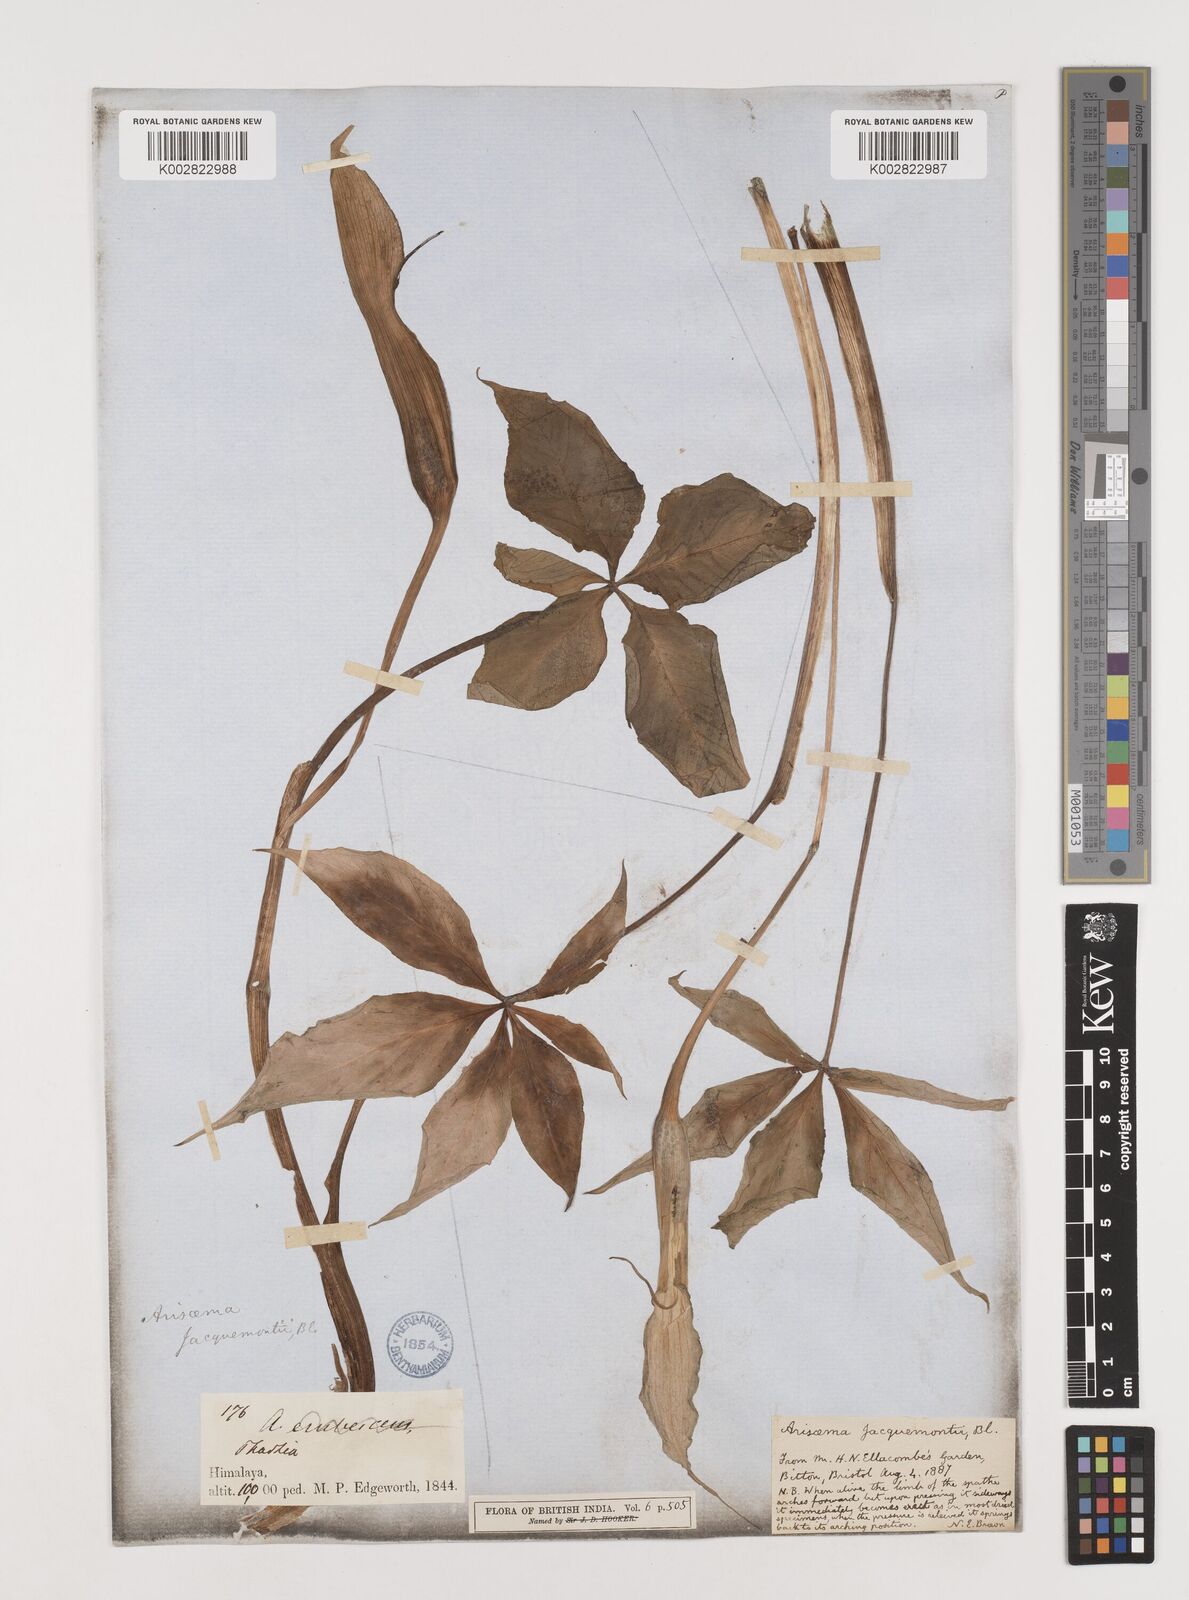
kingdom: Plantae
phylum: Tracheophyta
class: Liliopsida
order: Alismatales
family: Araceae
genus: Arisaema
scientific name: Arisaema jacquemontii
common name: Jacquemont's cobra-lily
